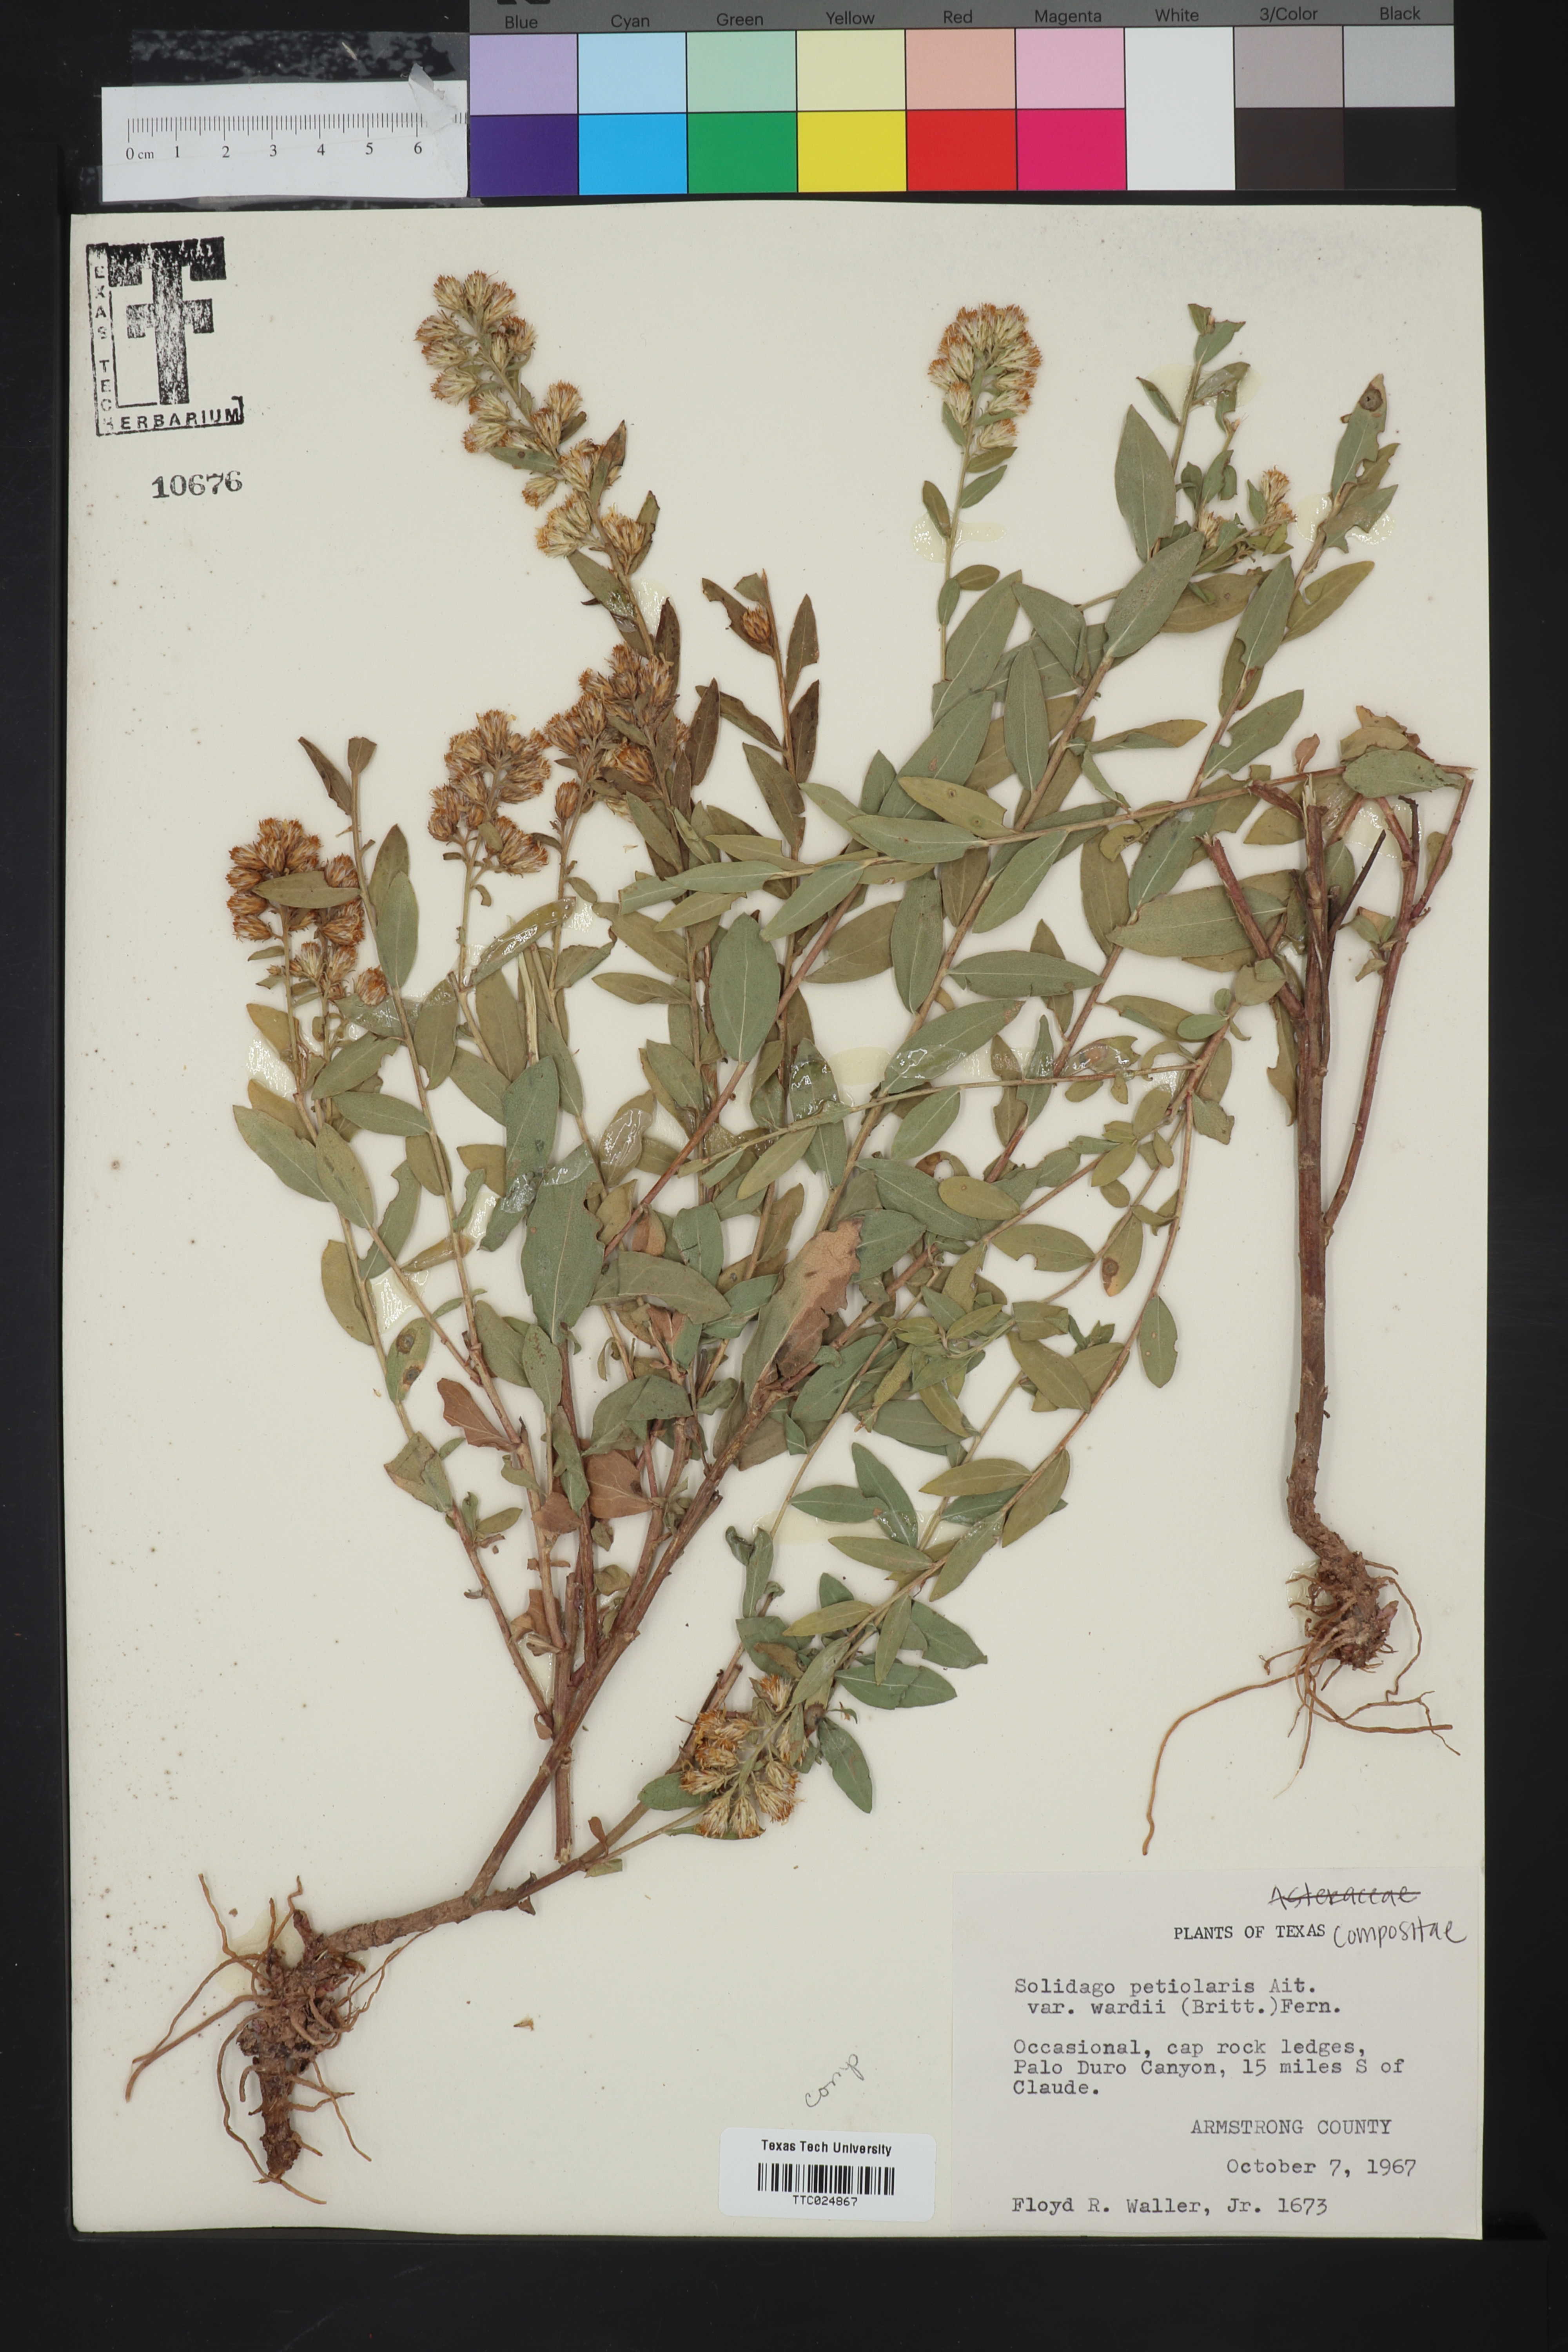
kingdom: Plantae
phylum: Tracheophyta
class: Magnoliopsida
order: Asterales
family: Asteraceae
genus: Solidago
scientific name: Solidago petiolaris
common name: Downy ragged goldenrod
